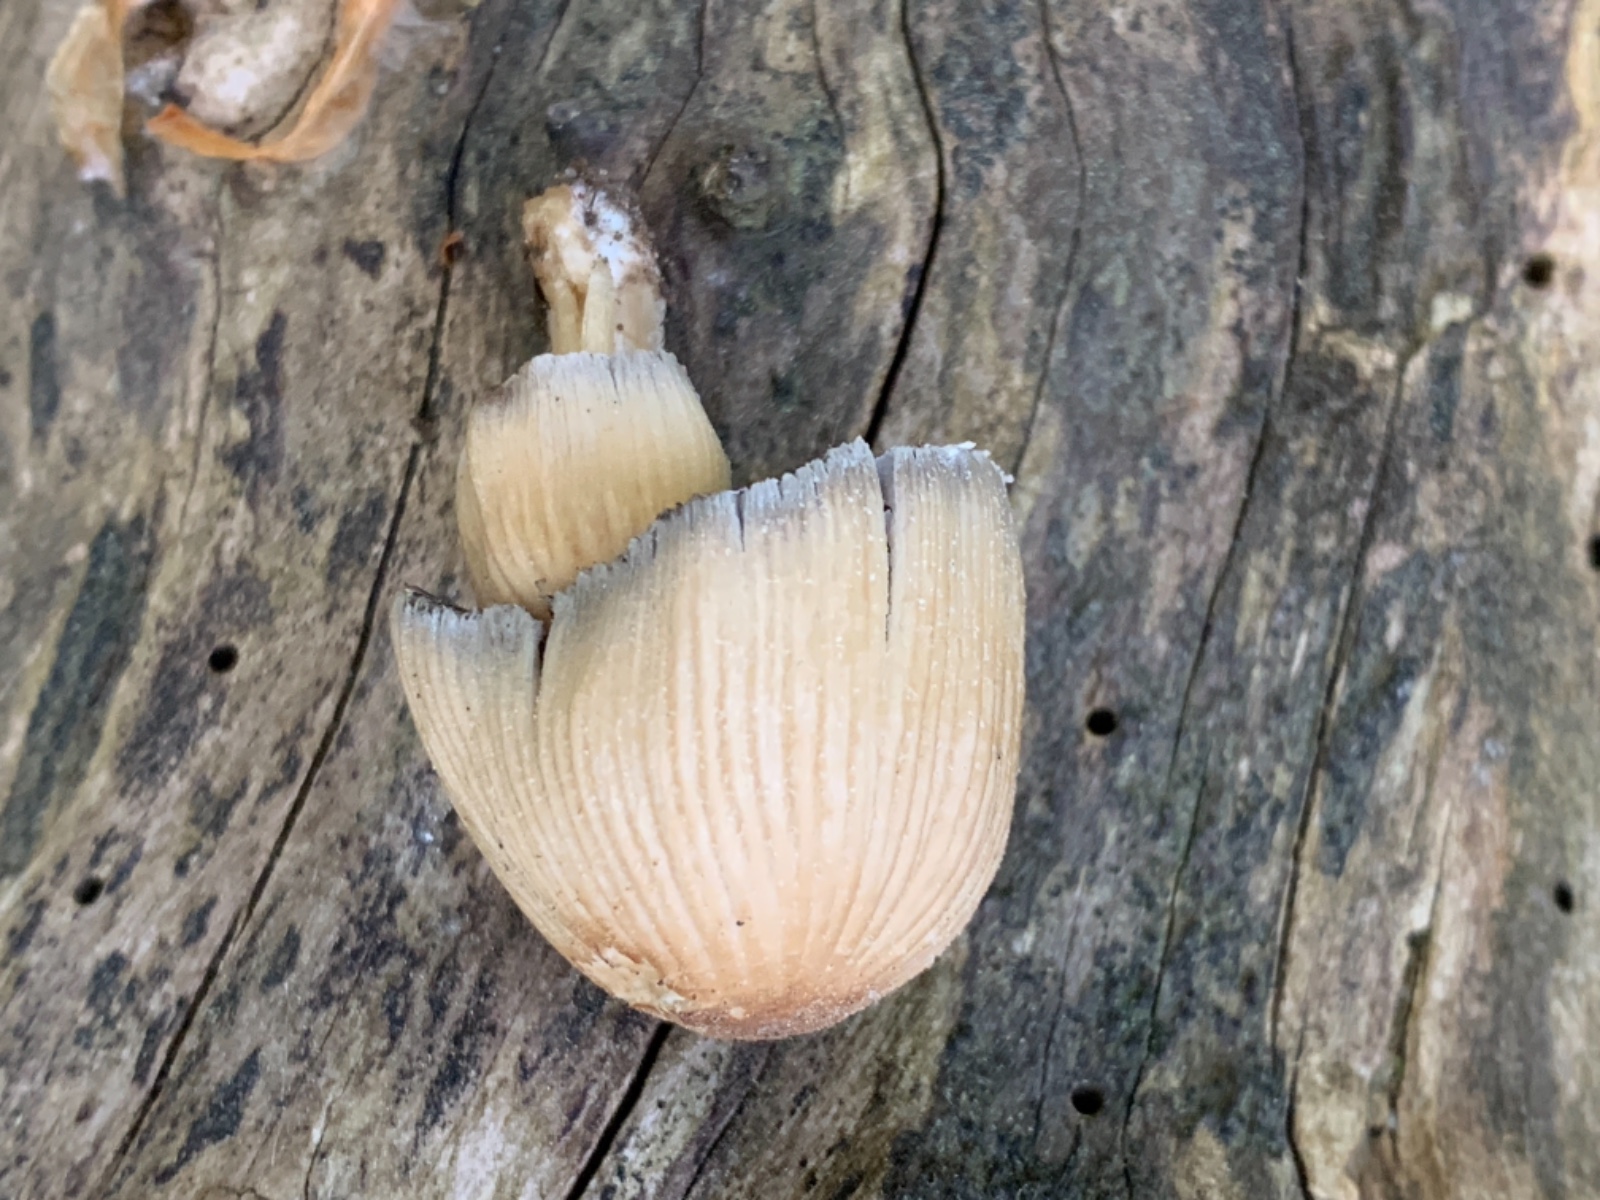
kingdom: Fungi
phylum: Basidiomycota
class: Agaricomycetes
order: Agaricales
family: Psathyrellaceae
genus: Coprinellus
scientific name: Coprinellus micaceus
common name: glimmer-blækhat
